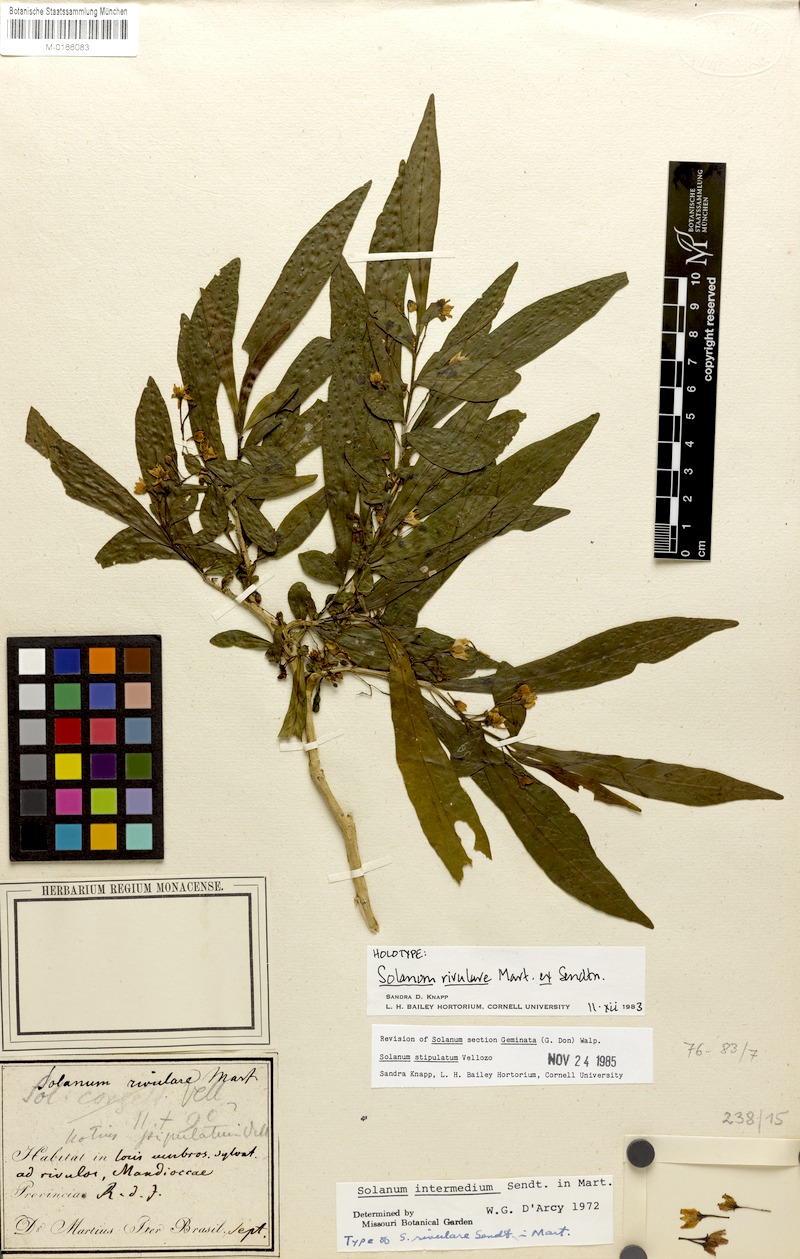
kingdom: Plantae
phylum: Tracheophyta
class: Magnoliopsida
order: Solanales
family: Solanaceae
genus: Solanum
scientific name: Solanum stipulatum
